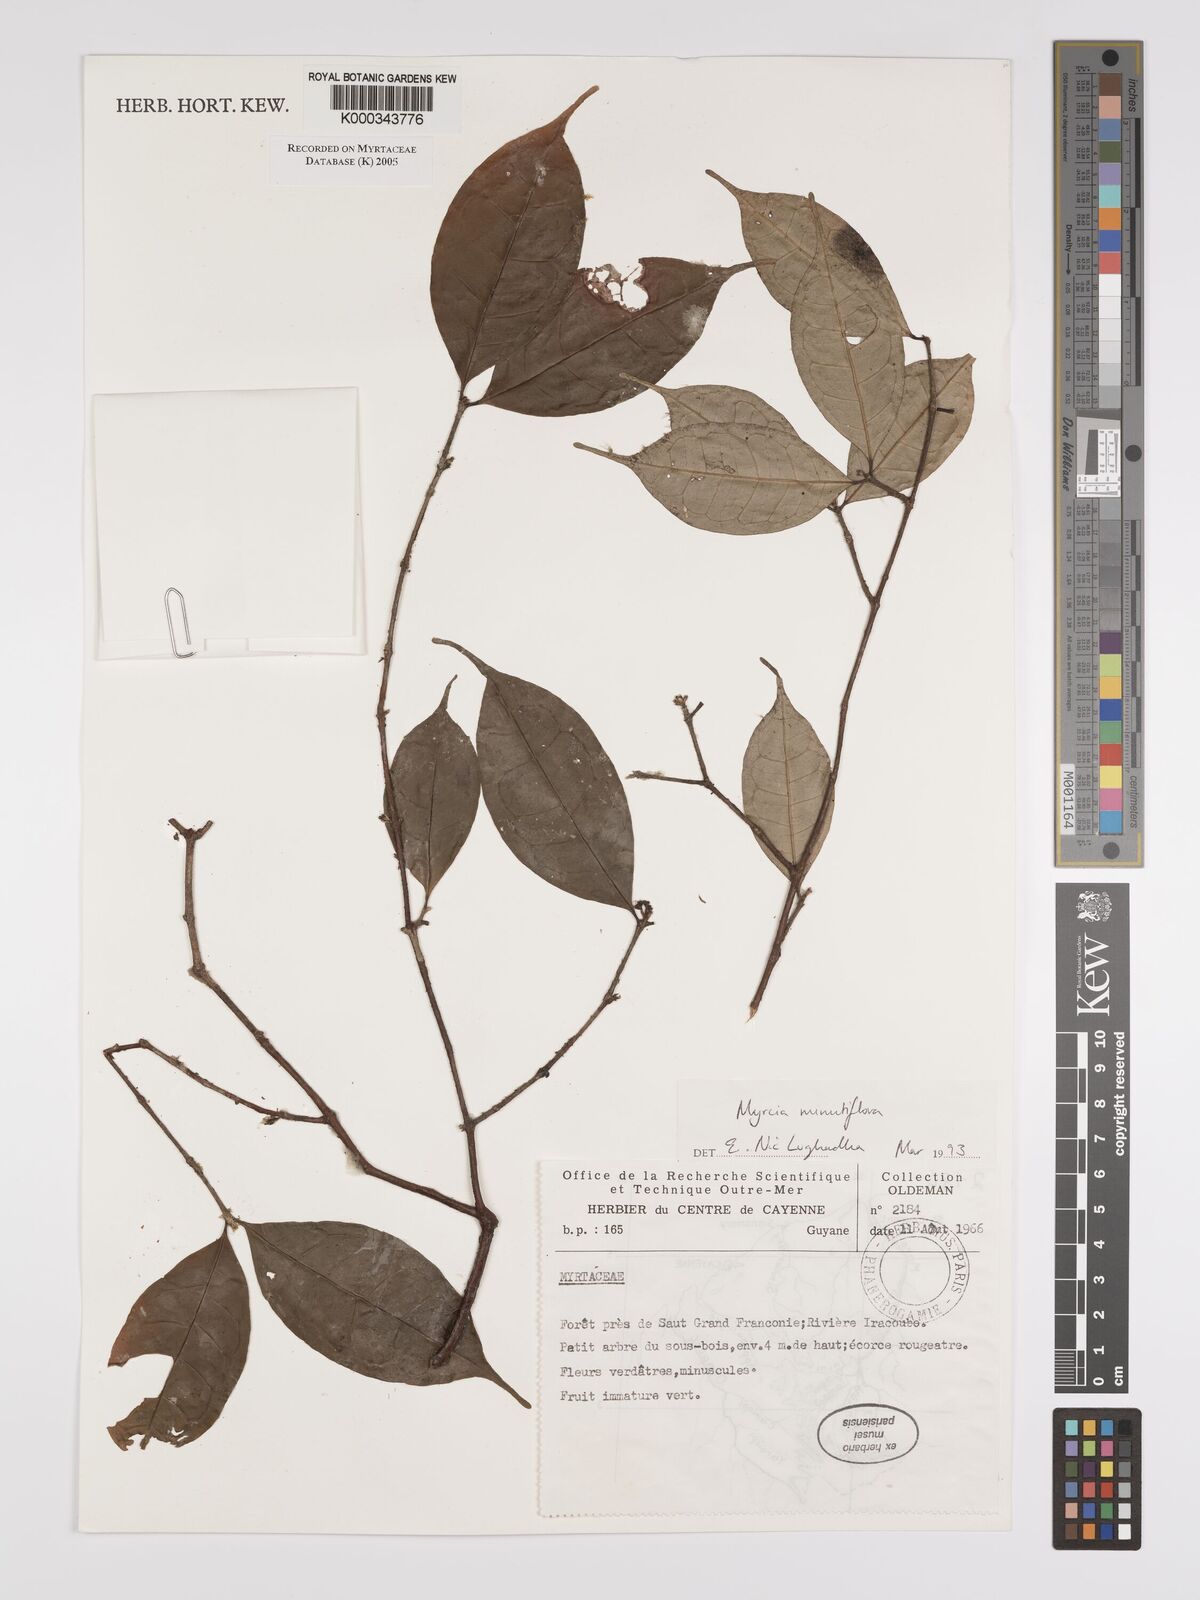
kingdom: Plantae
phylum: Tracheophyta
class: Magnoliopsida
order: Myrtales
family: Myrtaceae
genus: Myrcia
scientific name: Myrcia minutiflora
